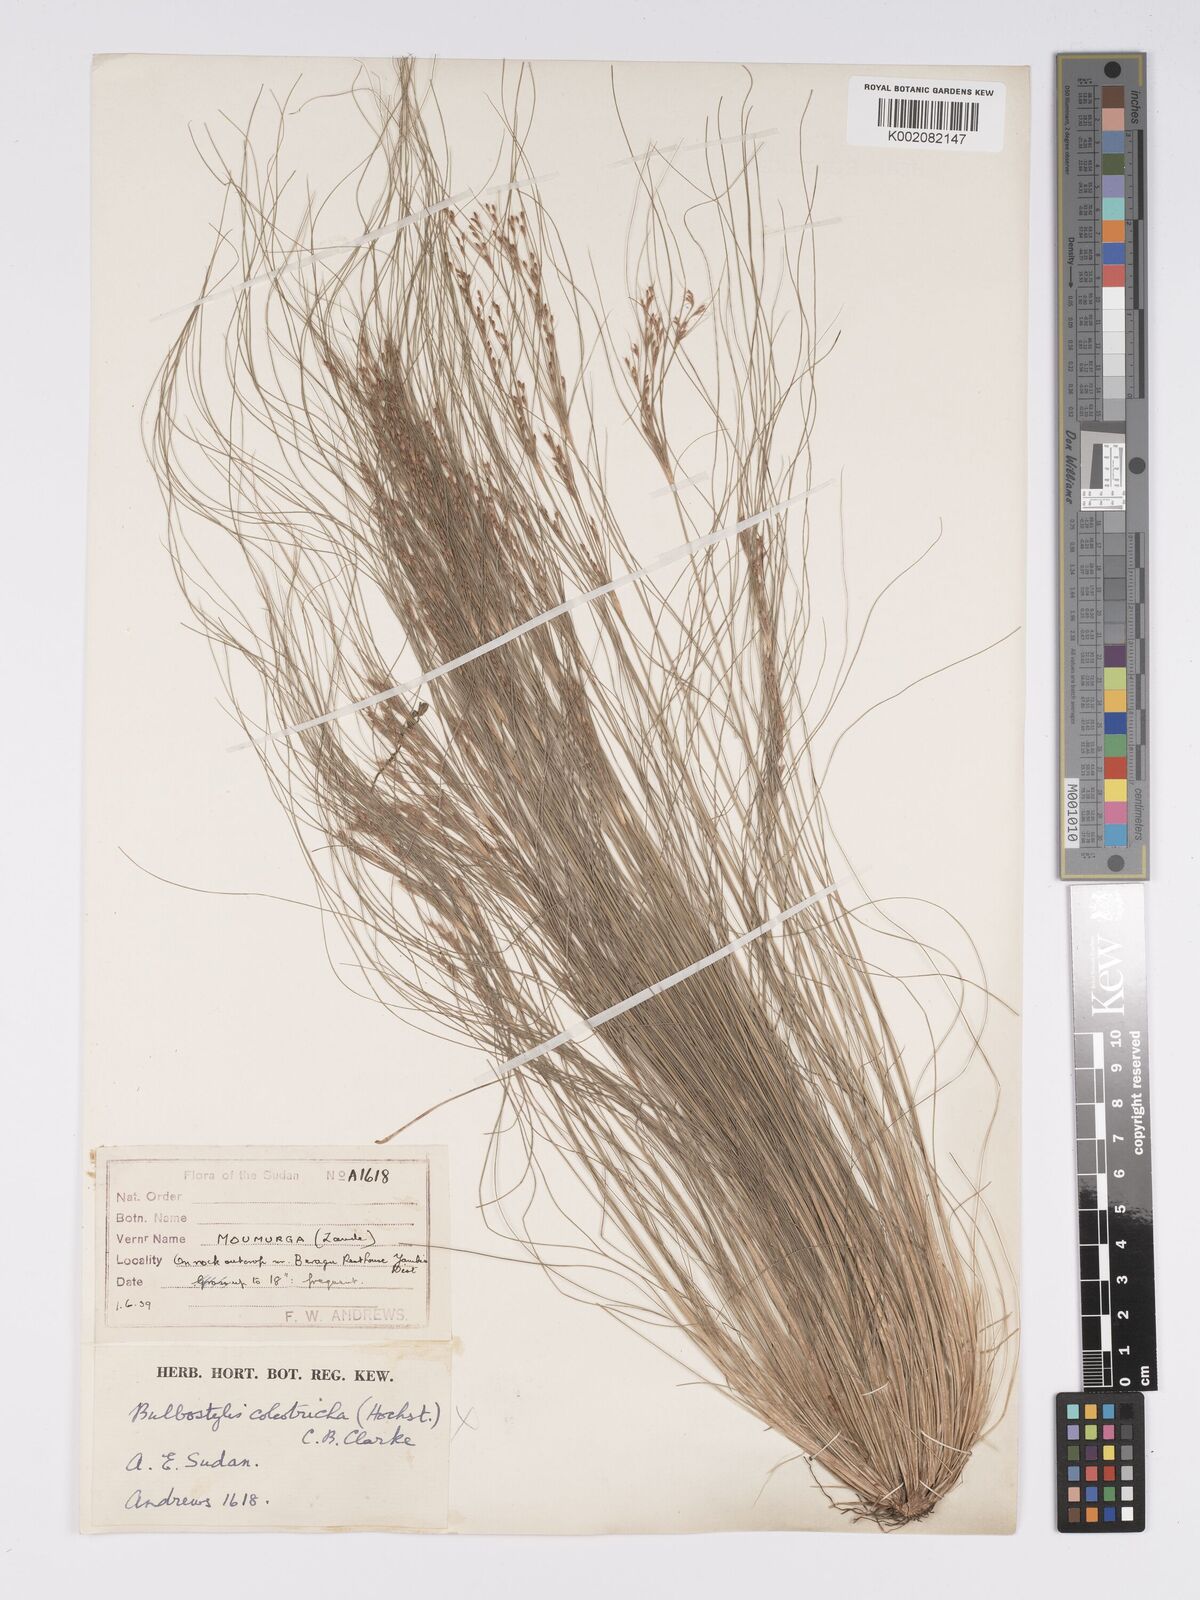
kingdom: Plantae
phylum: Tracheophyta
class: Liliopsida
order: Poales
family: Cyperaceae
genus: Bulbostylis
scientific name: Bulbostylis coleotricha
